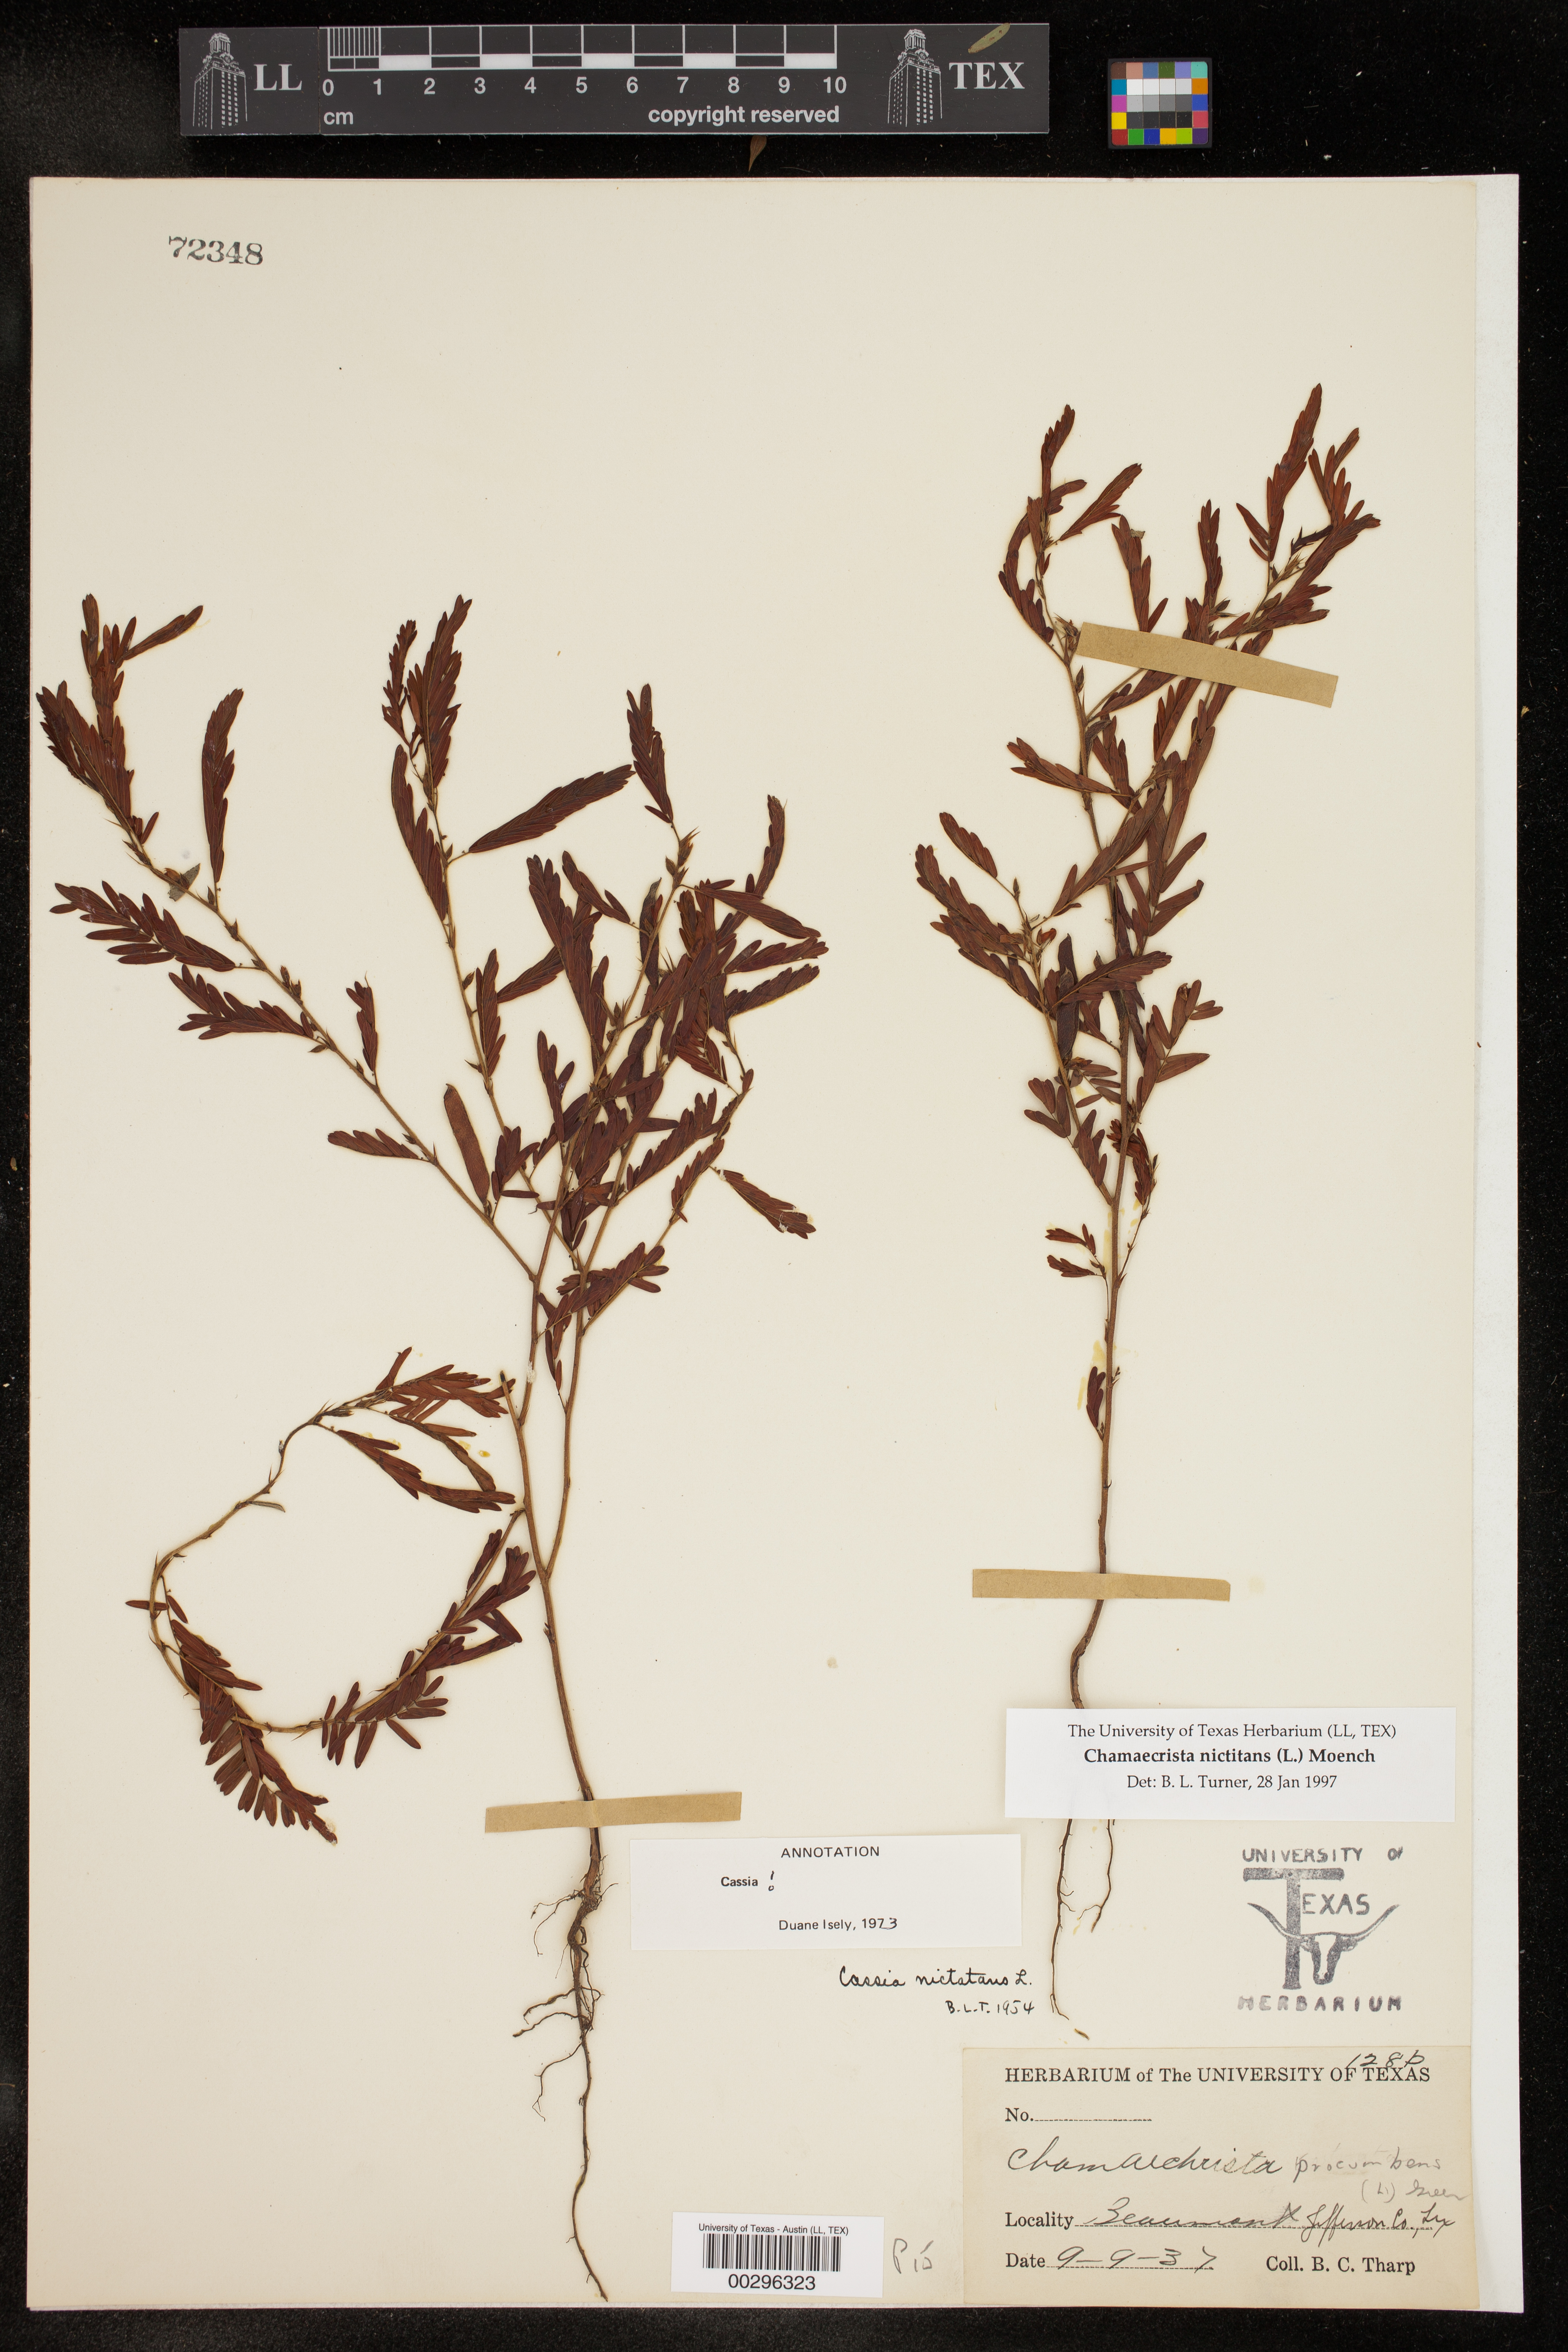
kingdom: Plantae
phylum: Tracheophyta
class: Magnoliopsida
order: Fabales
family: Fabaceae
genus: Chamaecrista
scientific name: Chamaecrista nictitans
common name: Sensitive cassia
